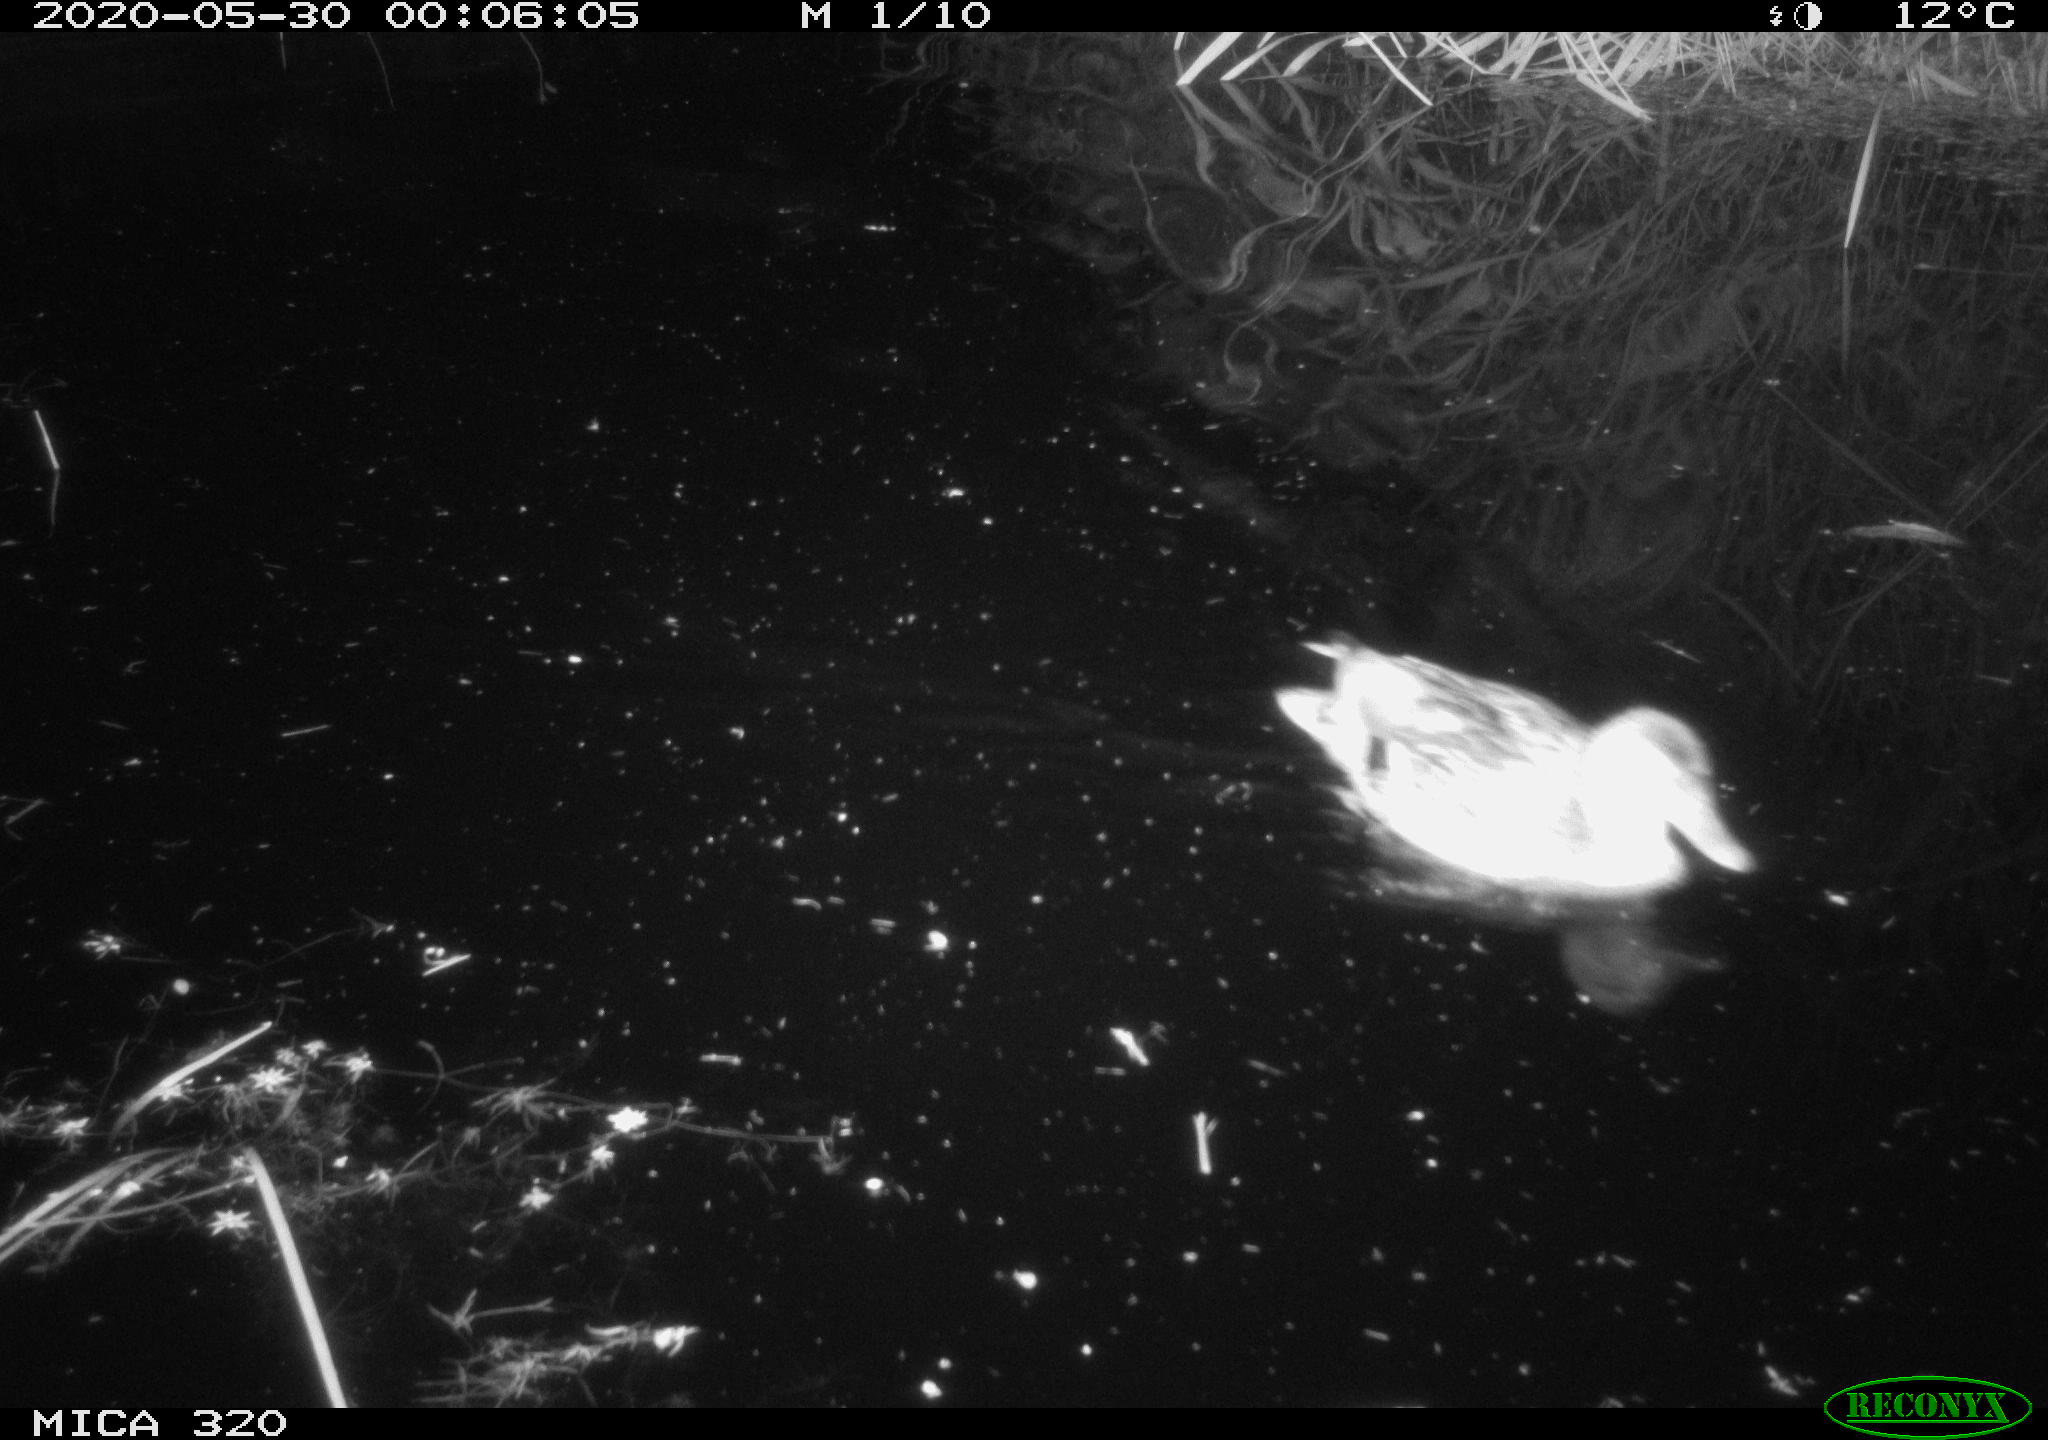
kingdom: Animalia
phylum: Chordata
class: Aves
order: Anseriformes
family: Anatidae
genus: Anas
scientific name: Anas platyrhynchos
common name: Mallard
